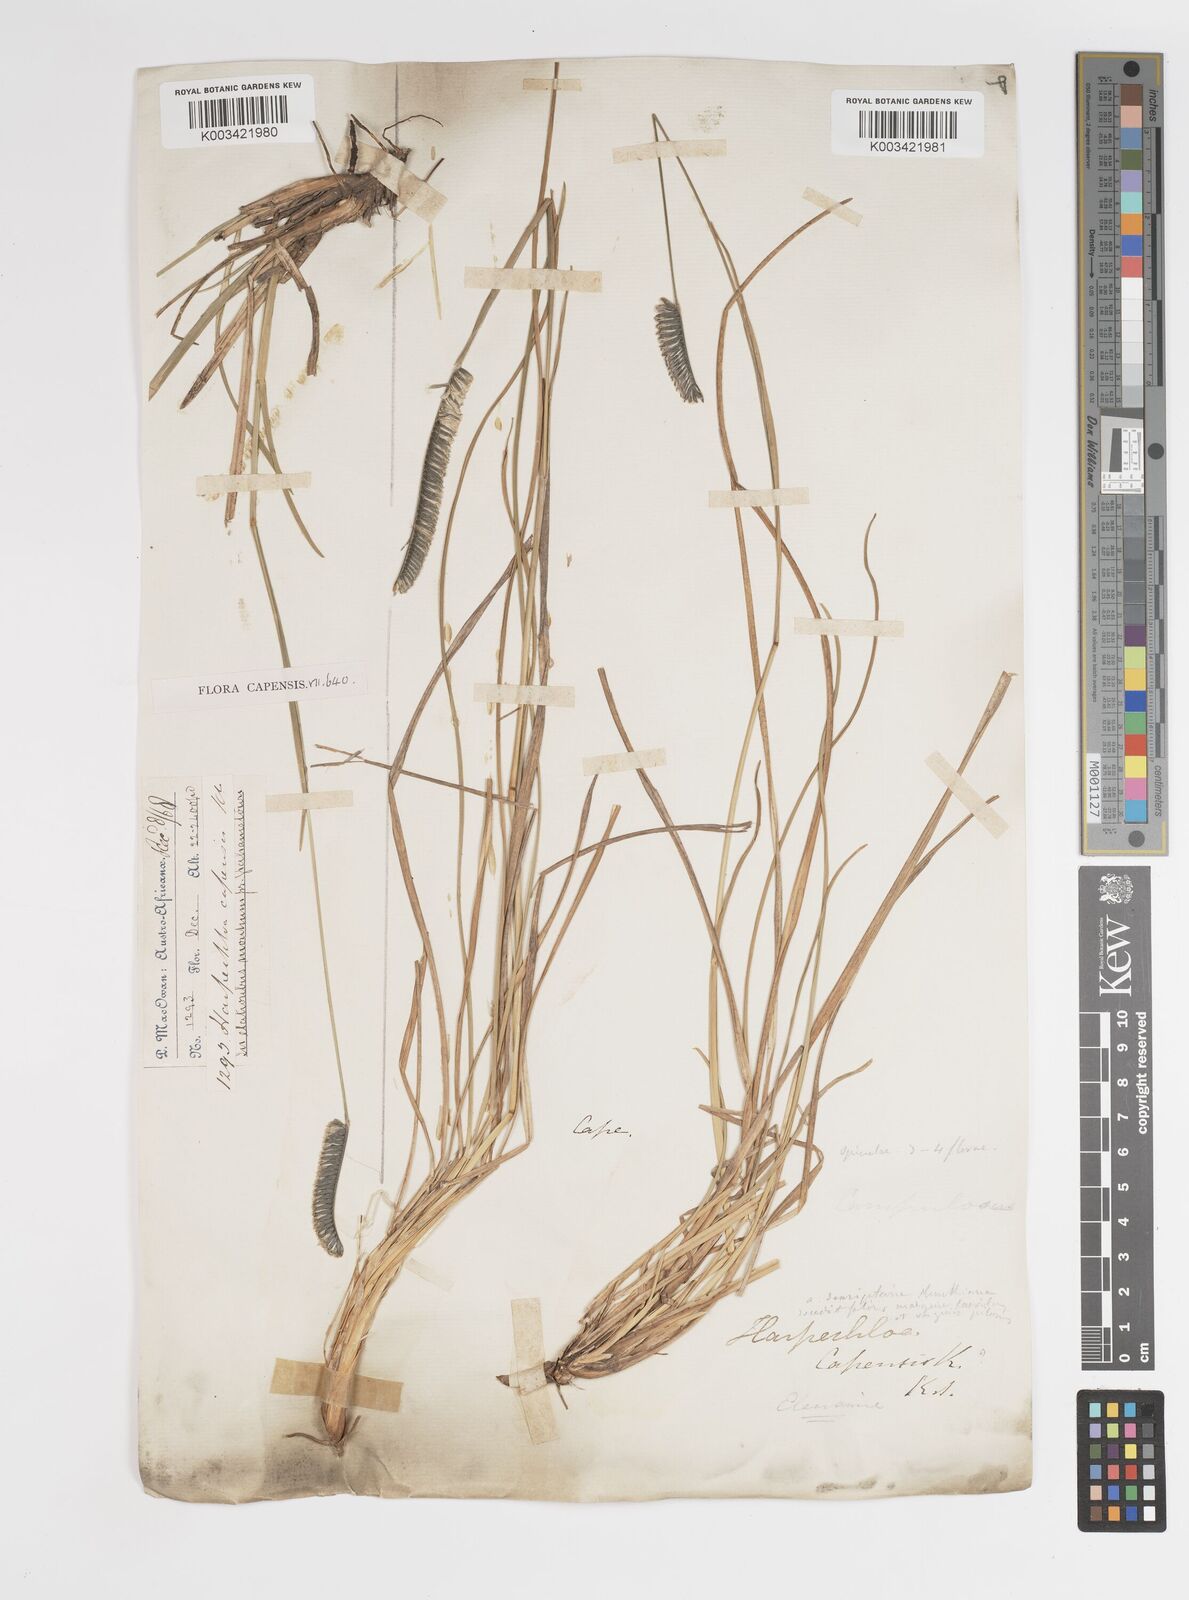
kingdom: Plantae
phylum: Tracheophyta
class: Liliopsida
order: Poales
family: Poaceae
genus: Harpochloa
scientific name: Harpochloa falx
